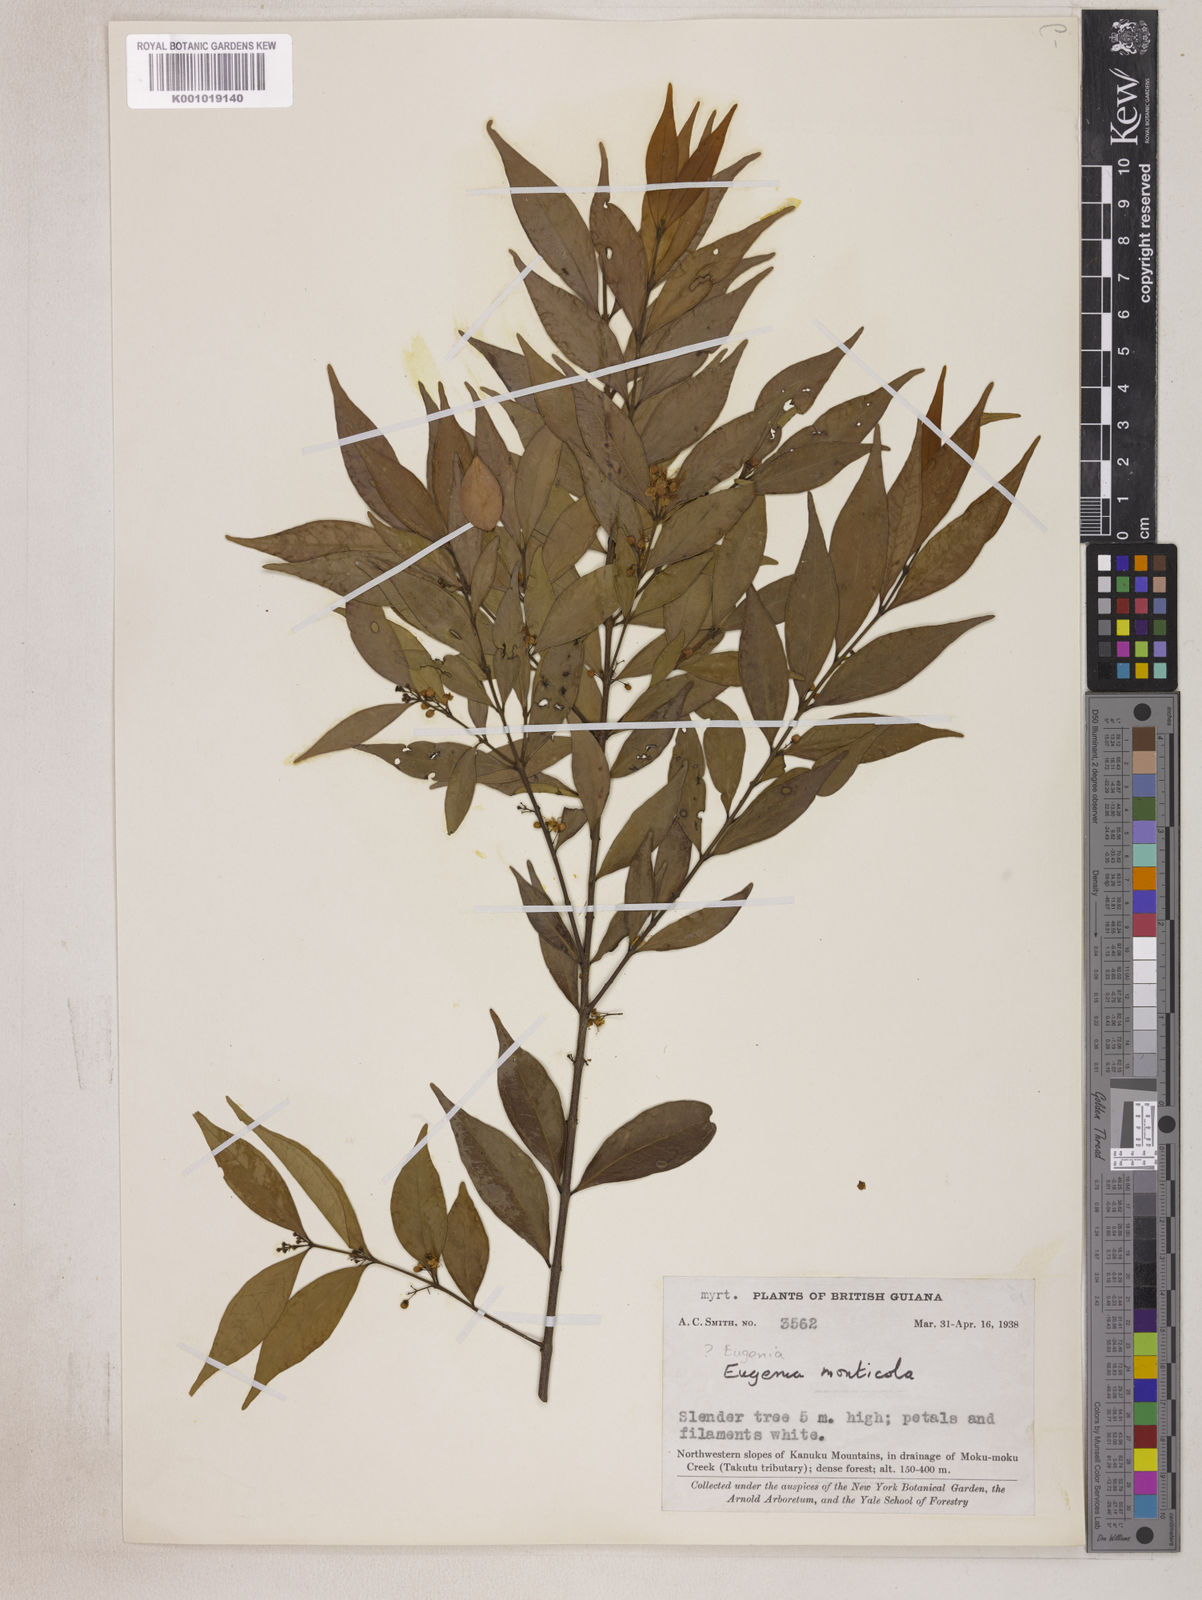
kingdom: Plantae
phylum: Tracheophyta
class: Magnoliopsida
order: Myrtales
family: Myrtaceae
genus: Eugenia
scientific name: Eugenia monticola
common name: Birds berry
